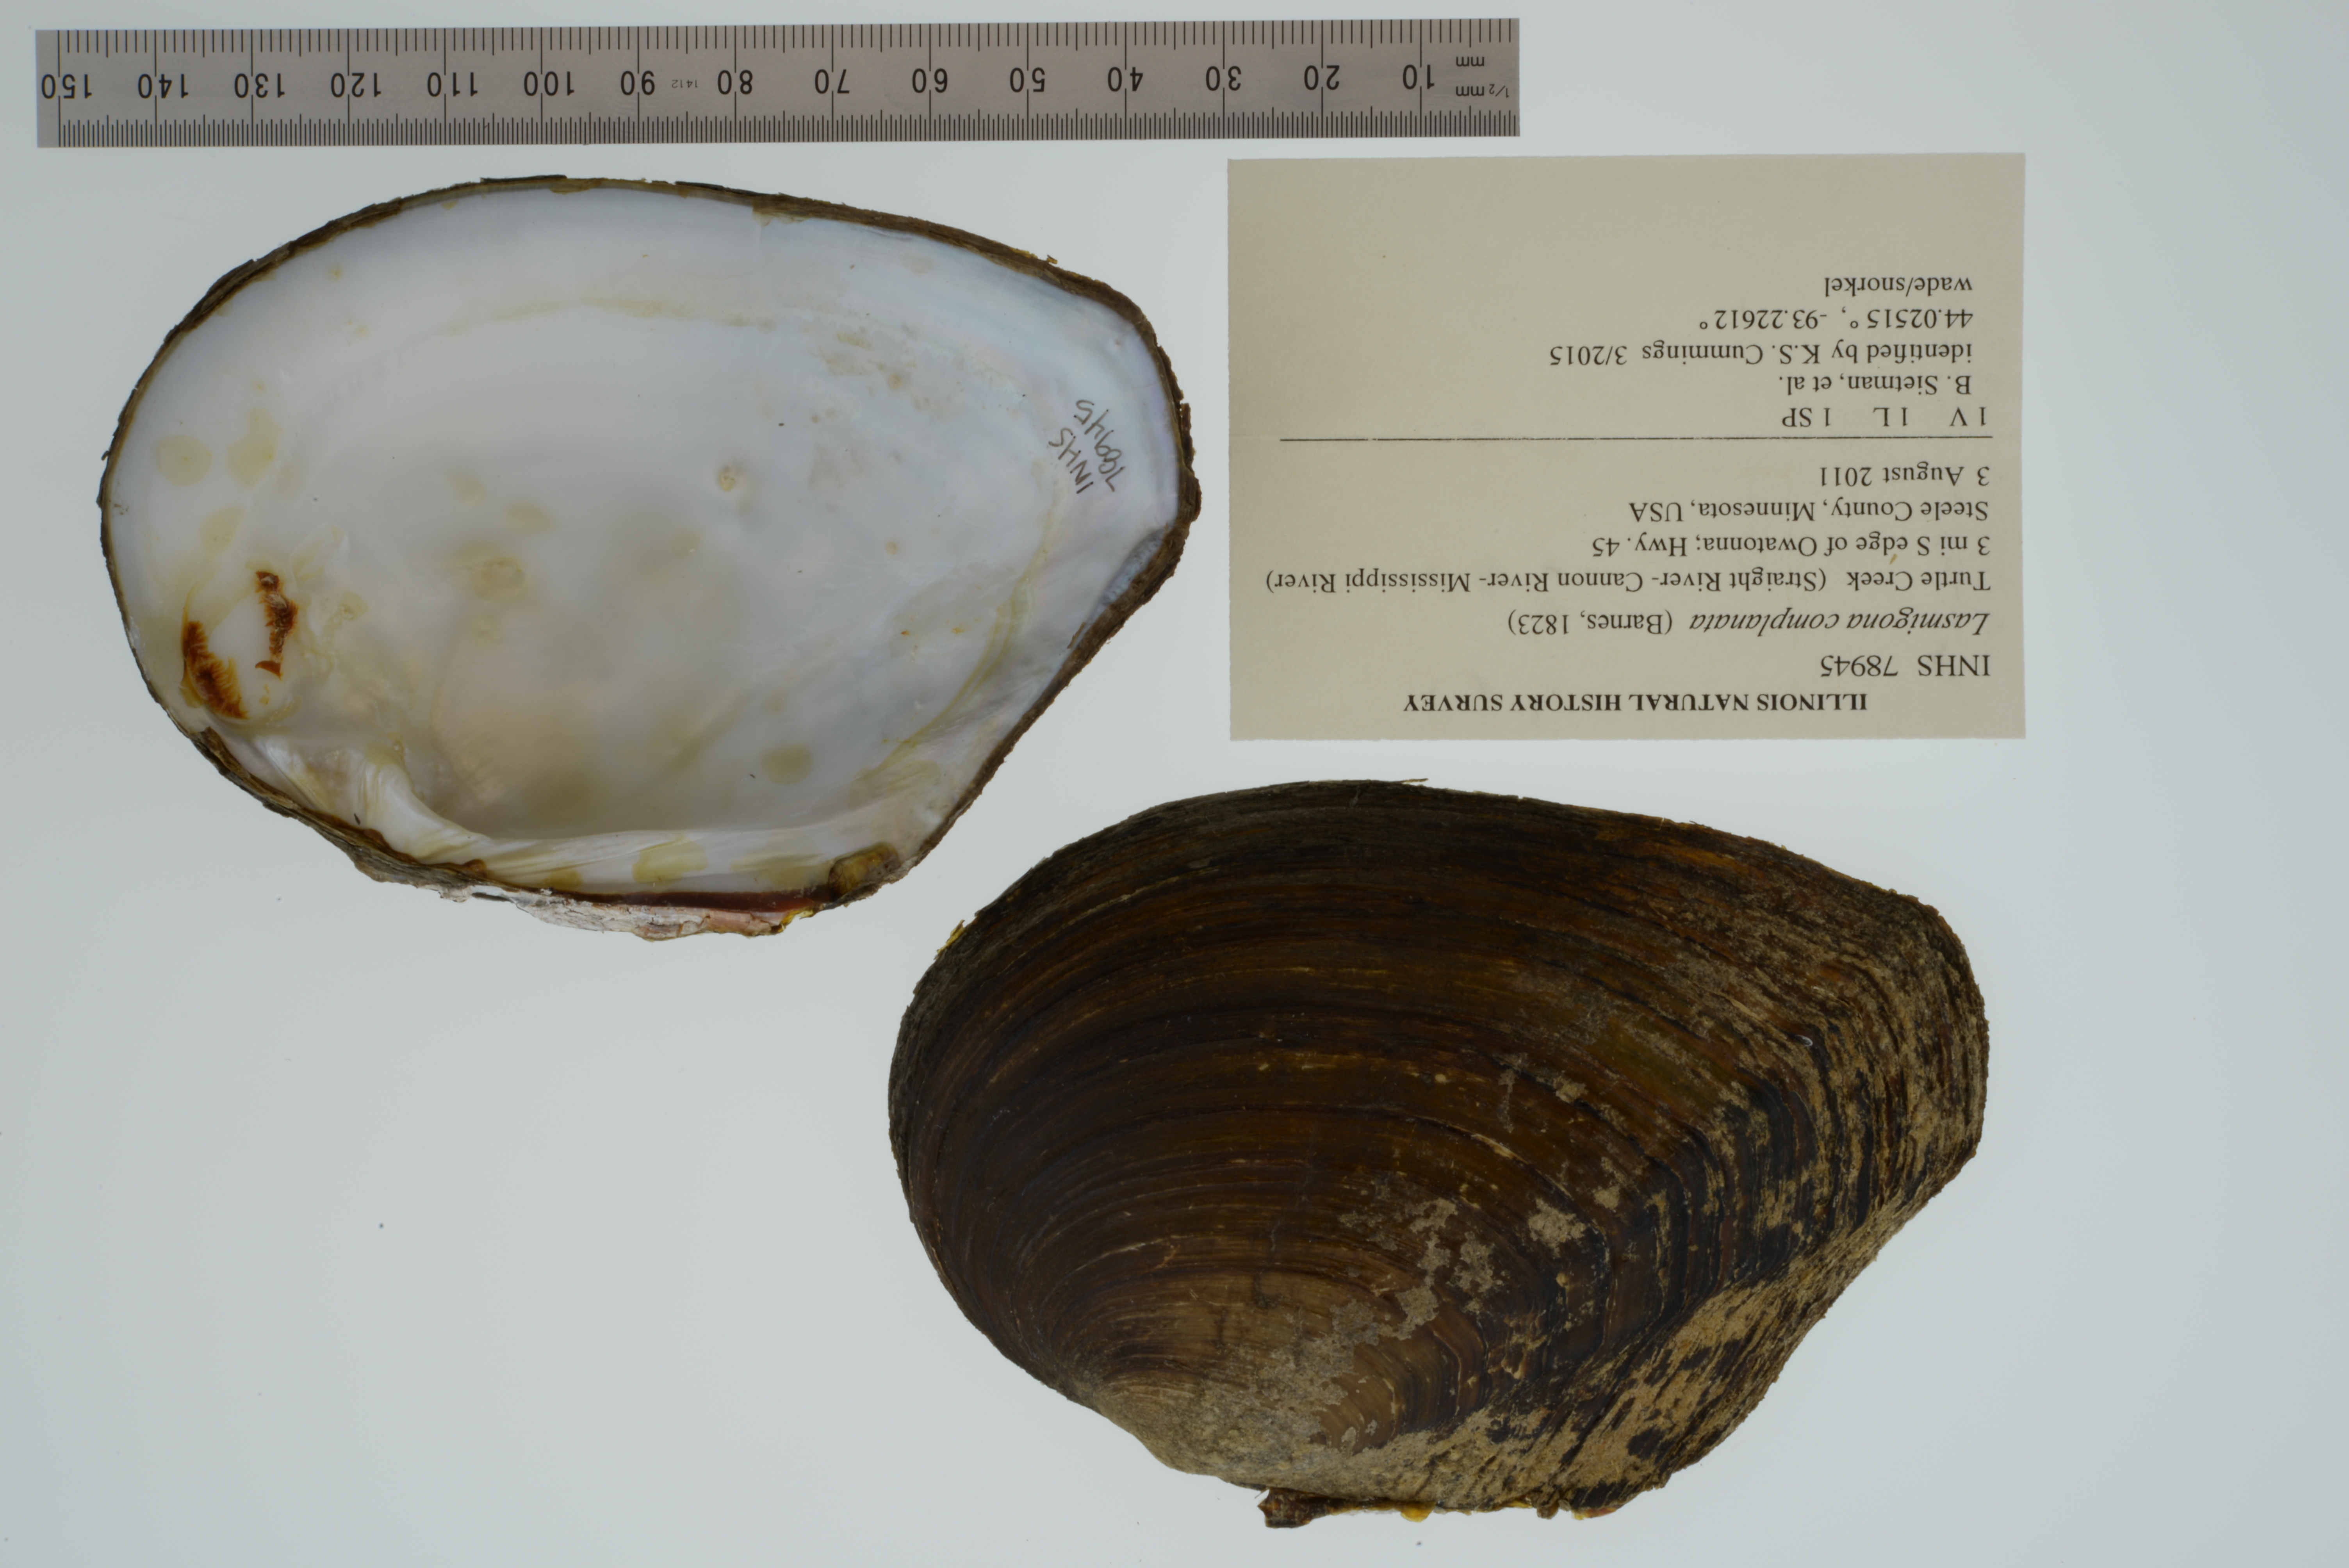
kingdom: Animalia
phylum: Mollusca
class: Bivalvia
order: Unionida
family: Unionidae
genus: Lasmigona
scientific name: Lasmigona complanata
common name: White heelsplitter
